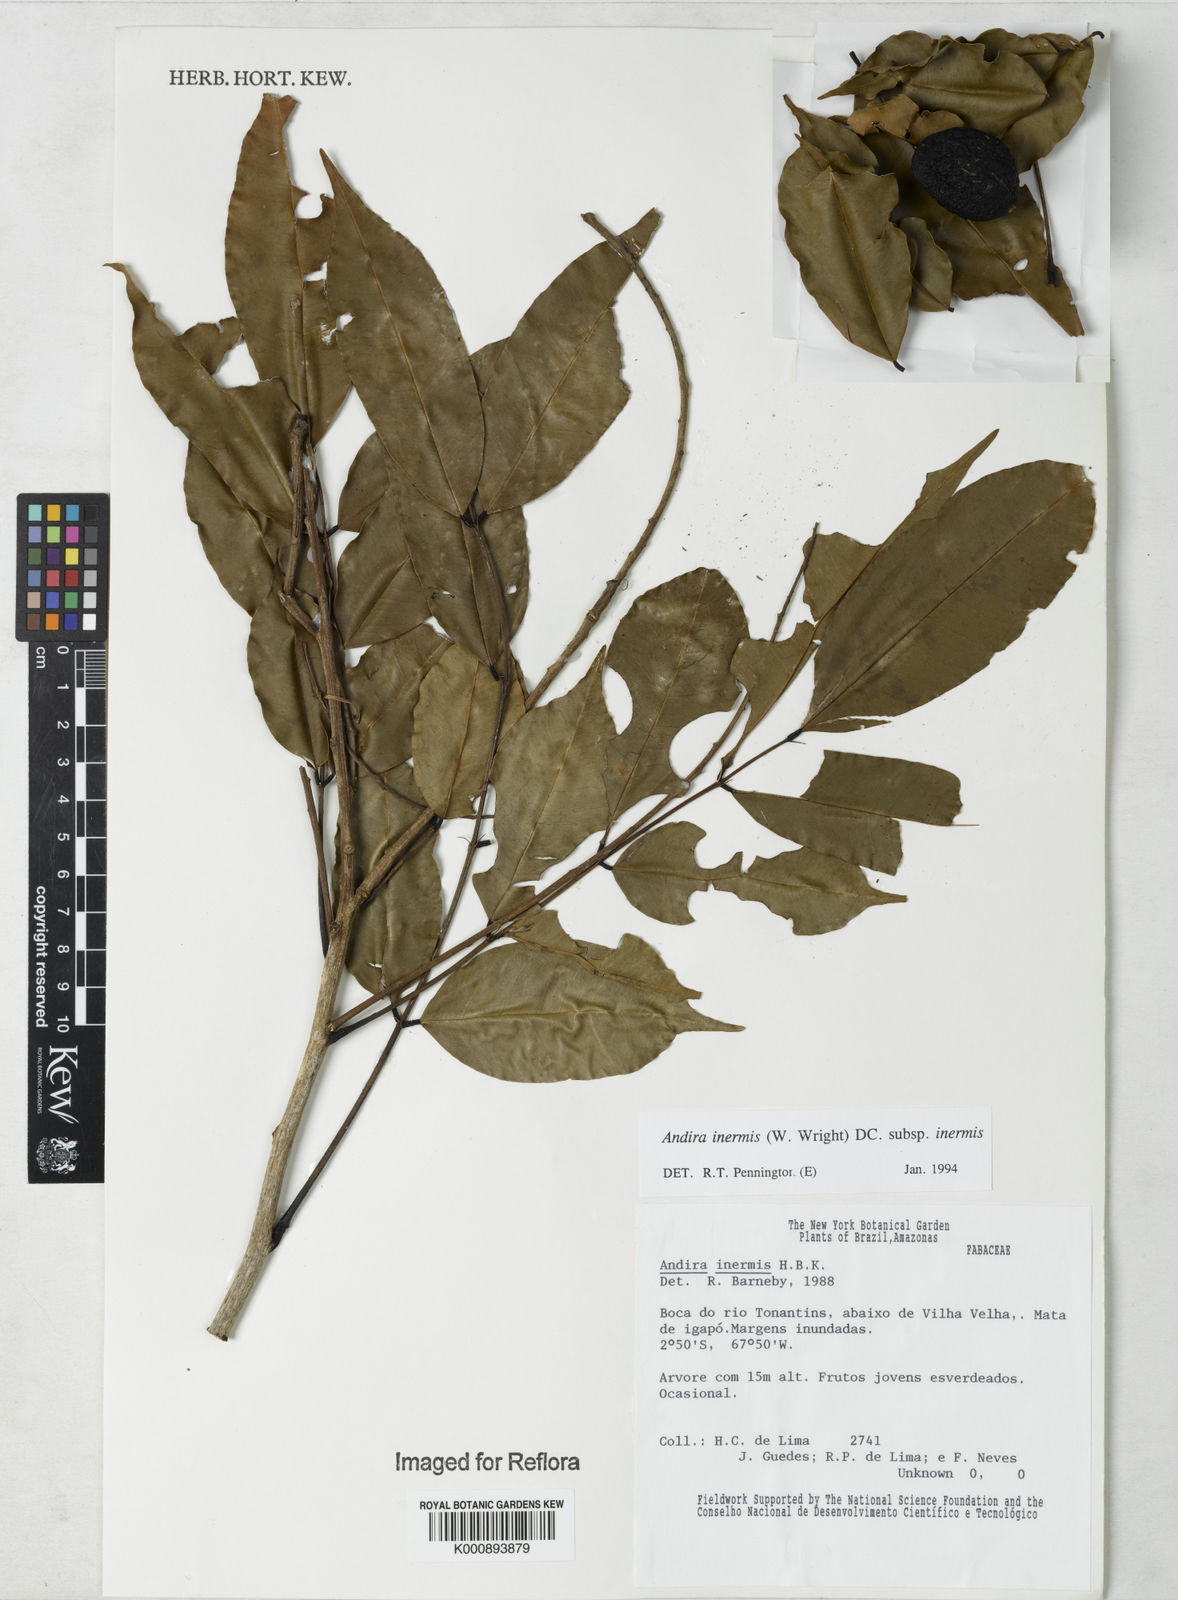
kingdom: Plantae
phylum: Tracheophyta
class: Magnoliopsida
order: Fabales
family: Fabaceae
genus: Andira
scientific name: Andira inermis
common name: Angelin
